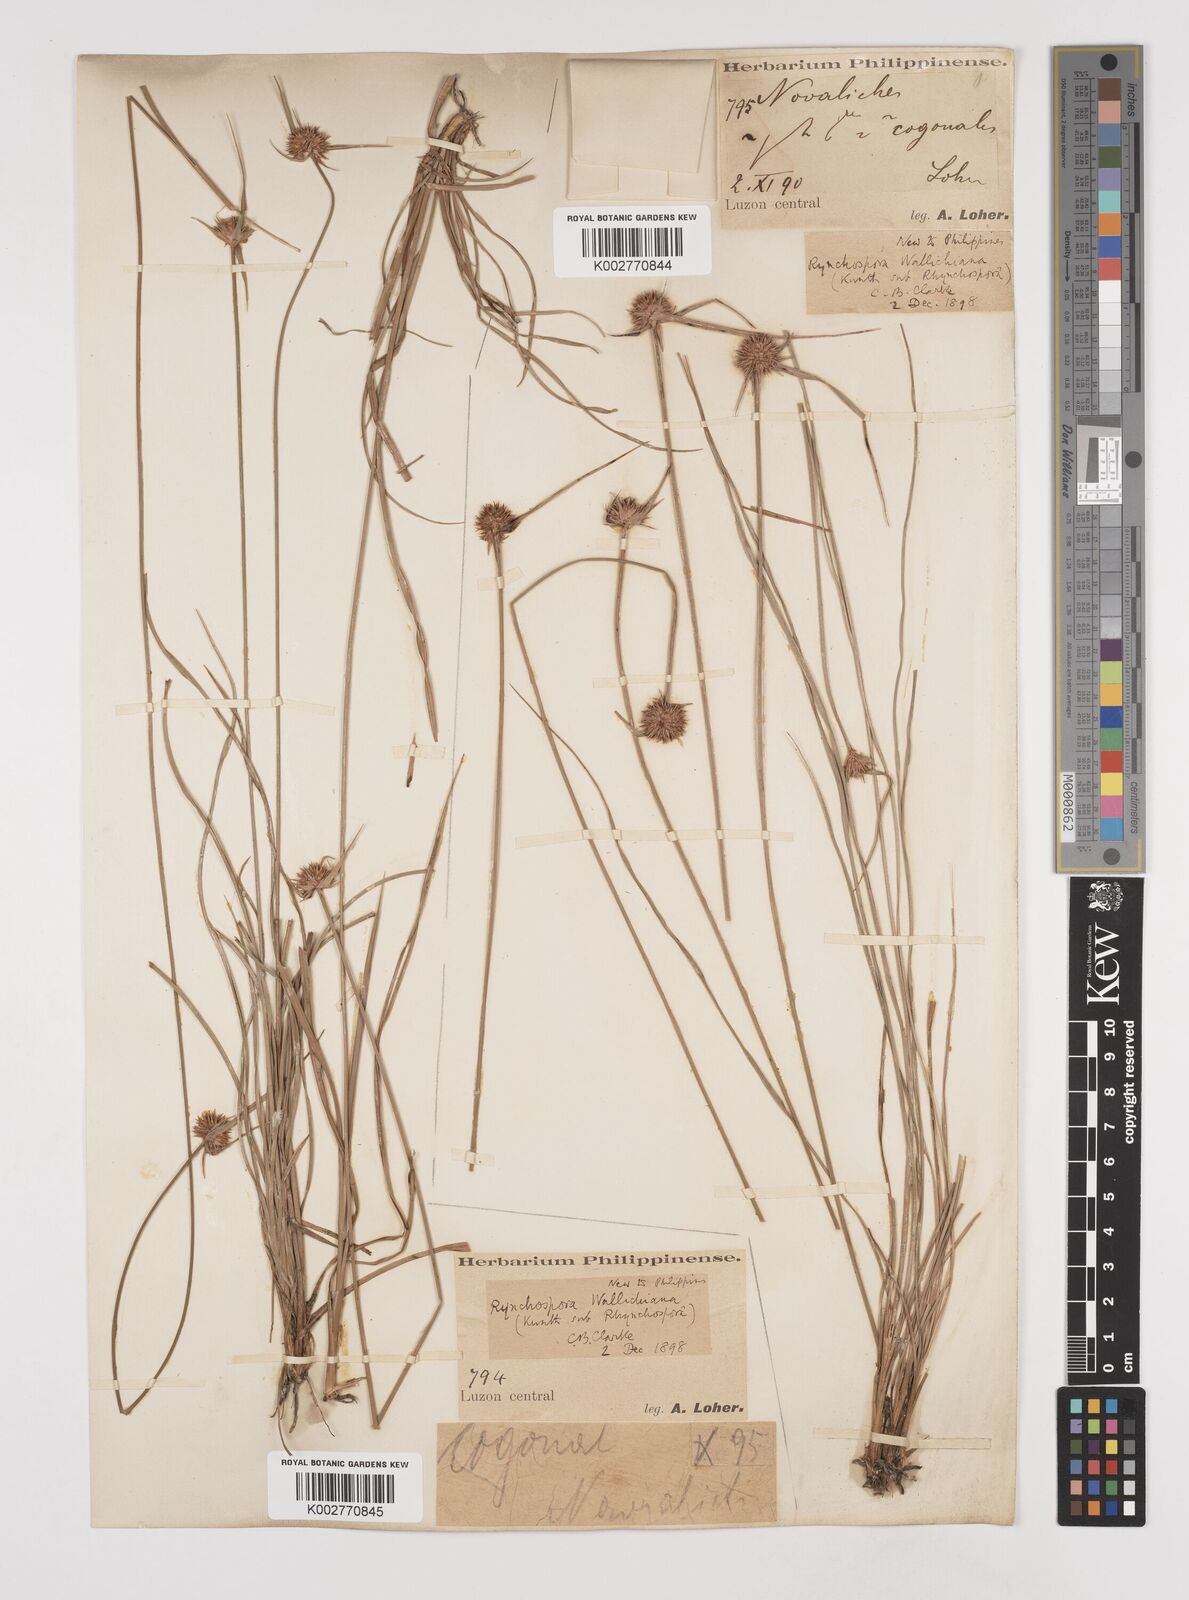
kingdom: Plantae
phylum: Tracheophyta
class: Liliopsida
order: Poales
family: Cyperaceae
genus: Rhynchospora
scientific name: Rhynchospora rubra
